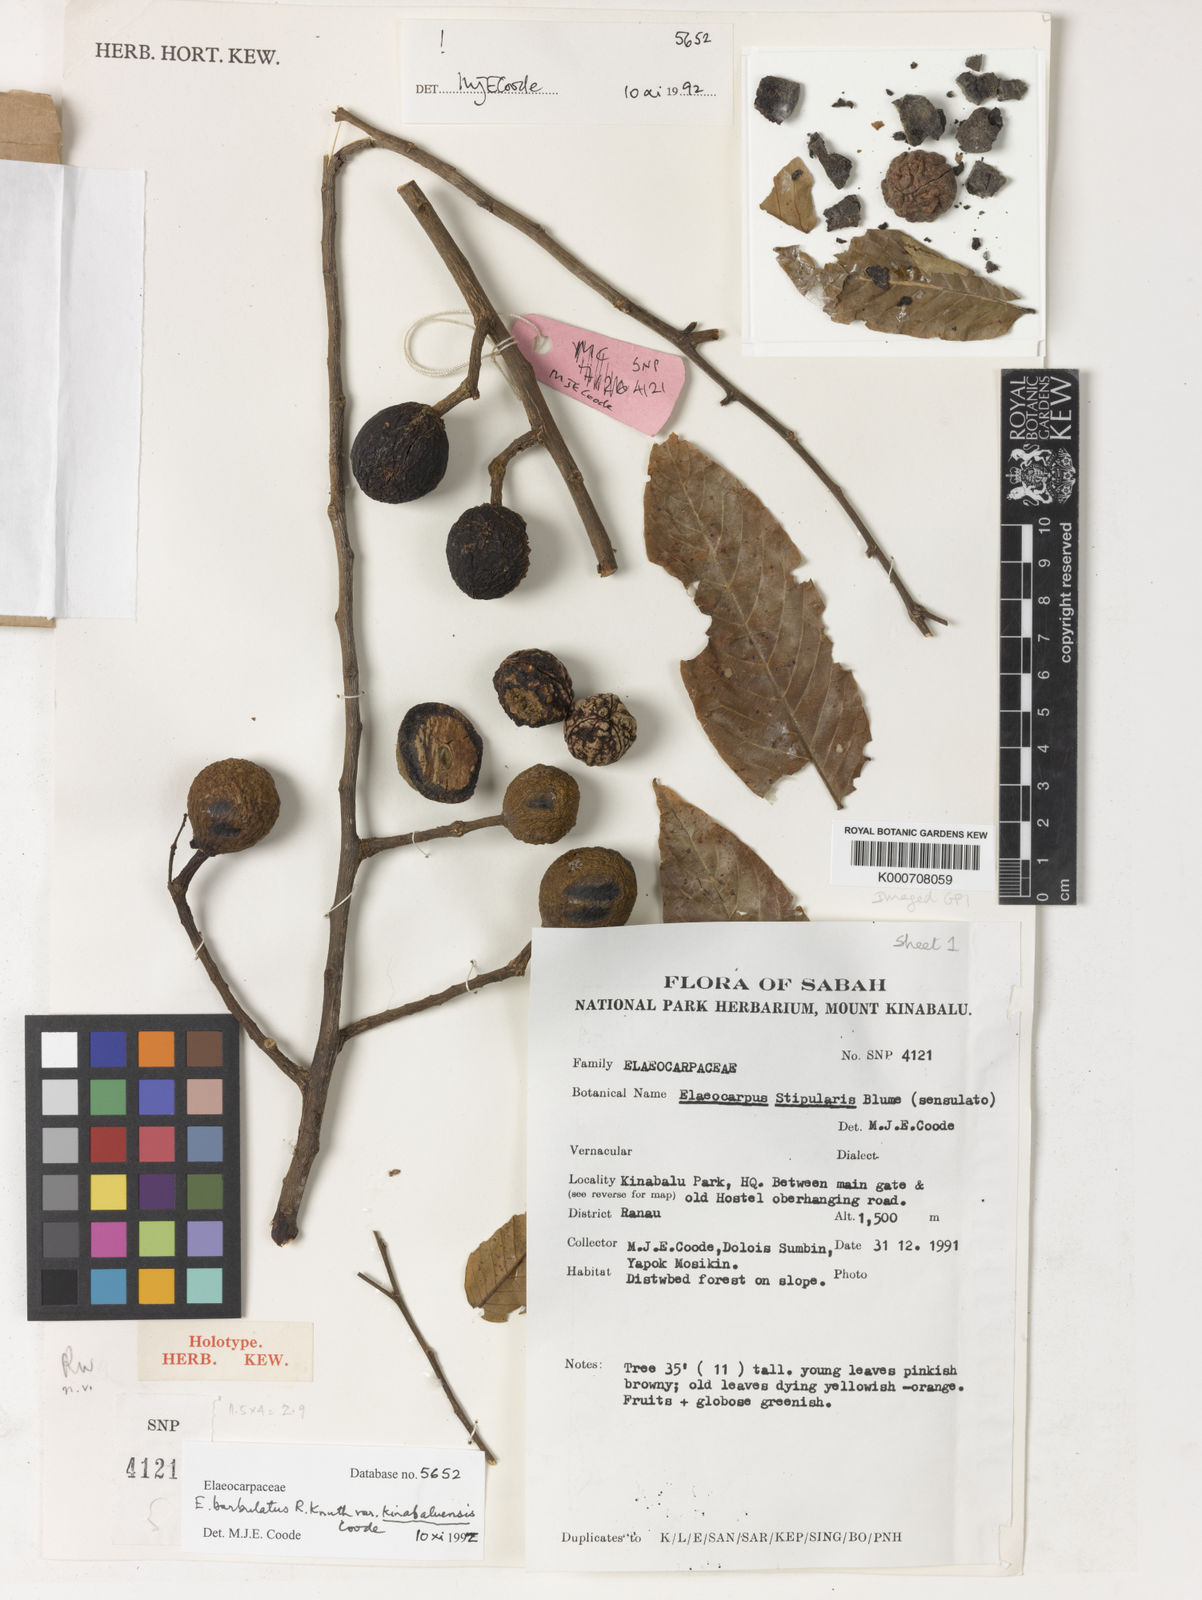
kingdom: Plantae
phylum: Tracheophyta
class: Magnoliopsida
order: Oxalidales
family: Elaeocarpaceae
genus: Elaeocarpus
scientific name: Elaeocarpus barbulatus
